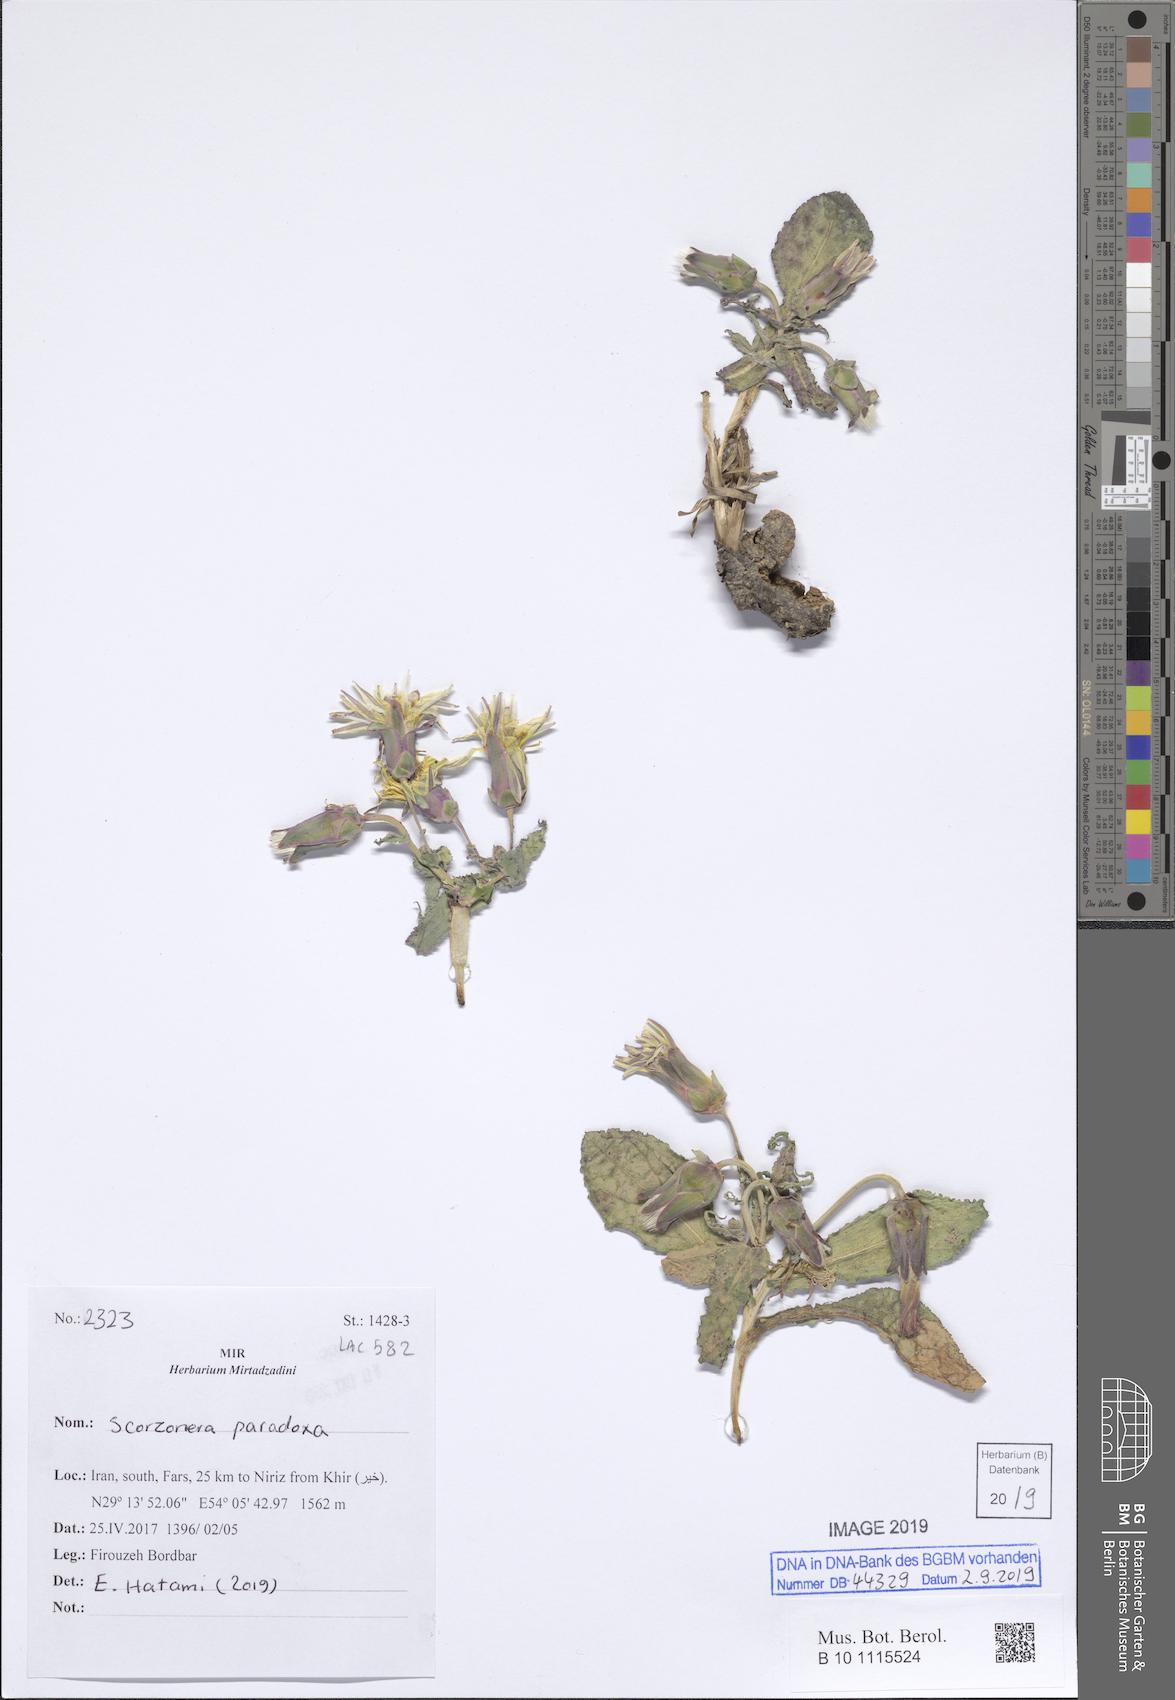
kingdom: Plantae
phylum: Tracheophyta
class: Magnoliopsida
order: Asterales
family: Asteraceae
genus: Pseudopodospermum
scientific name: Pseudopodospermum
